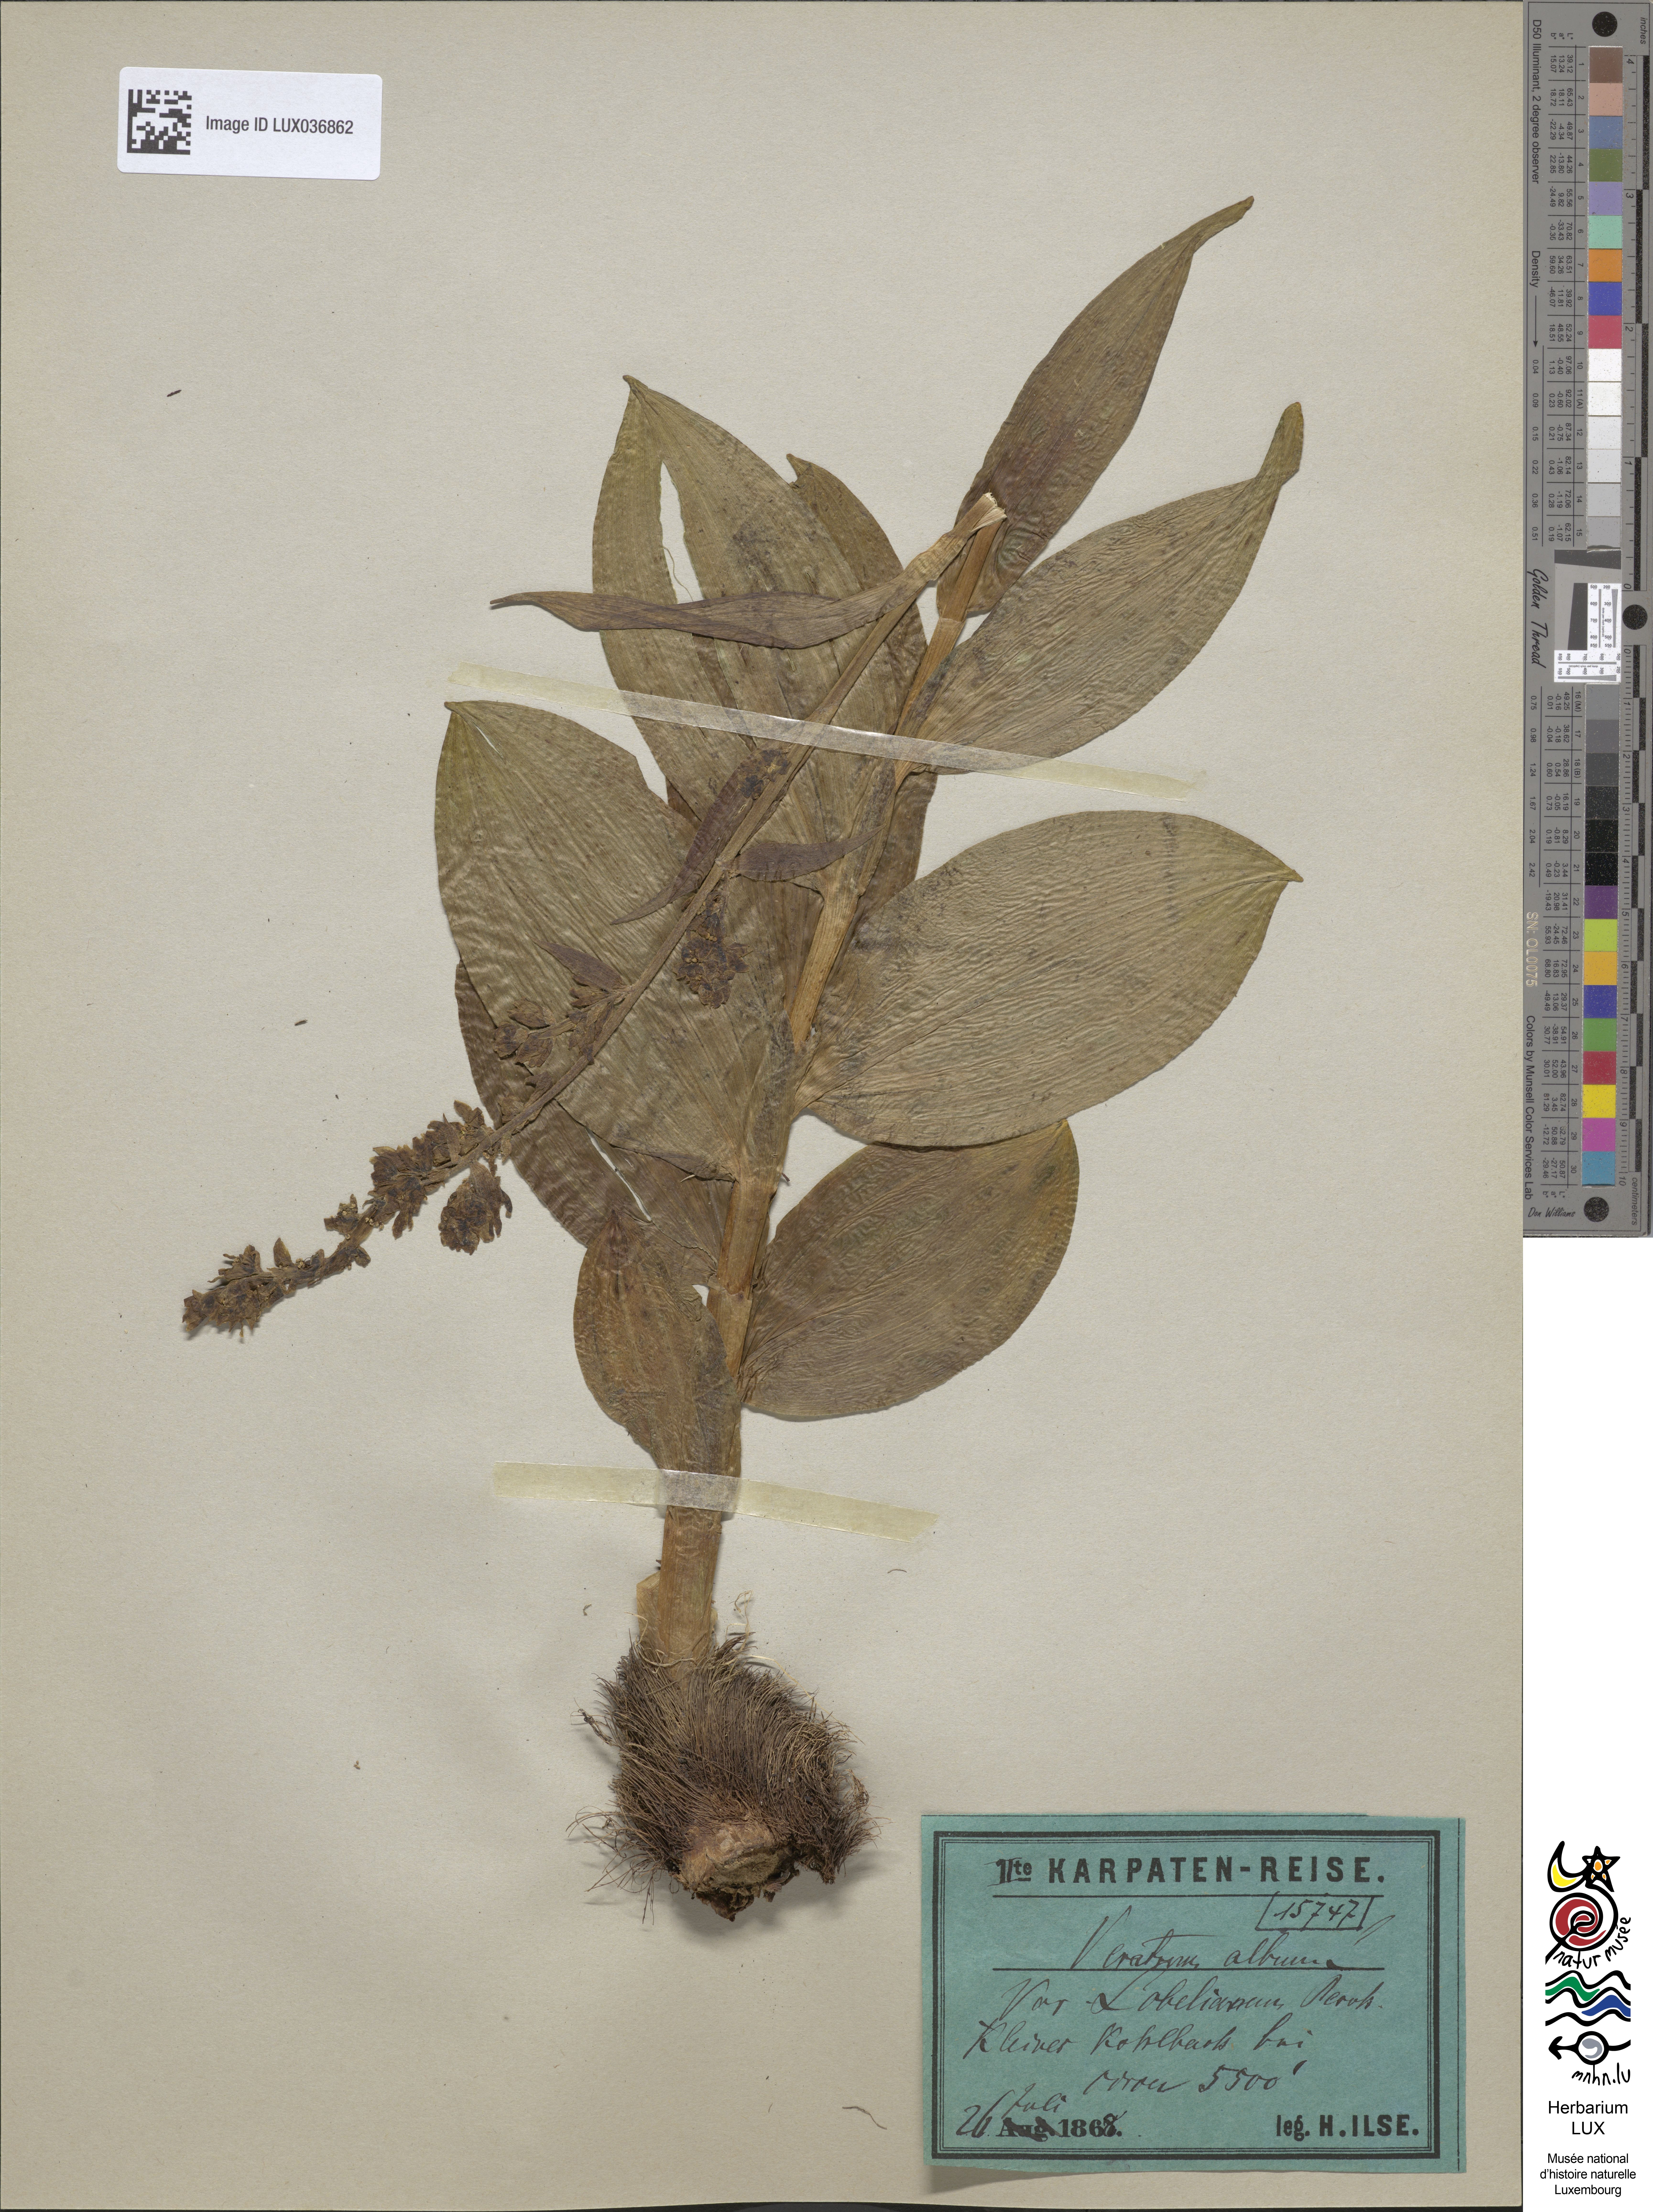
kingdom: Plantae
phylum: Tracheophyta
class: Liliopsida
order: Liliales
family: Melanthiaceae
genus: Veratrum
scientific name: Veratrum lobelianum
